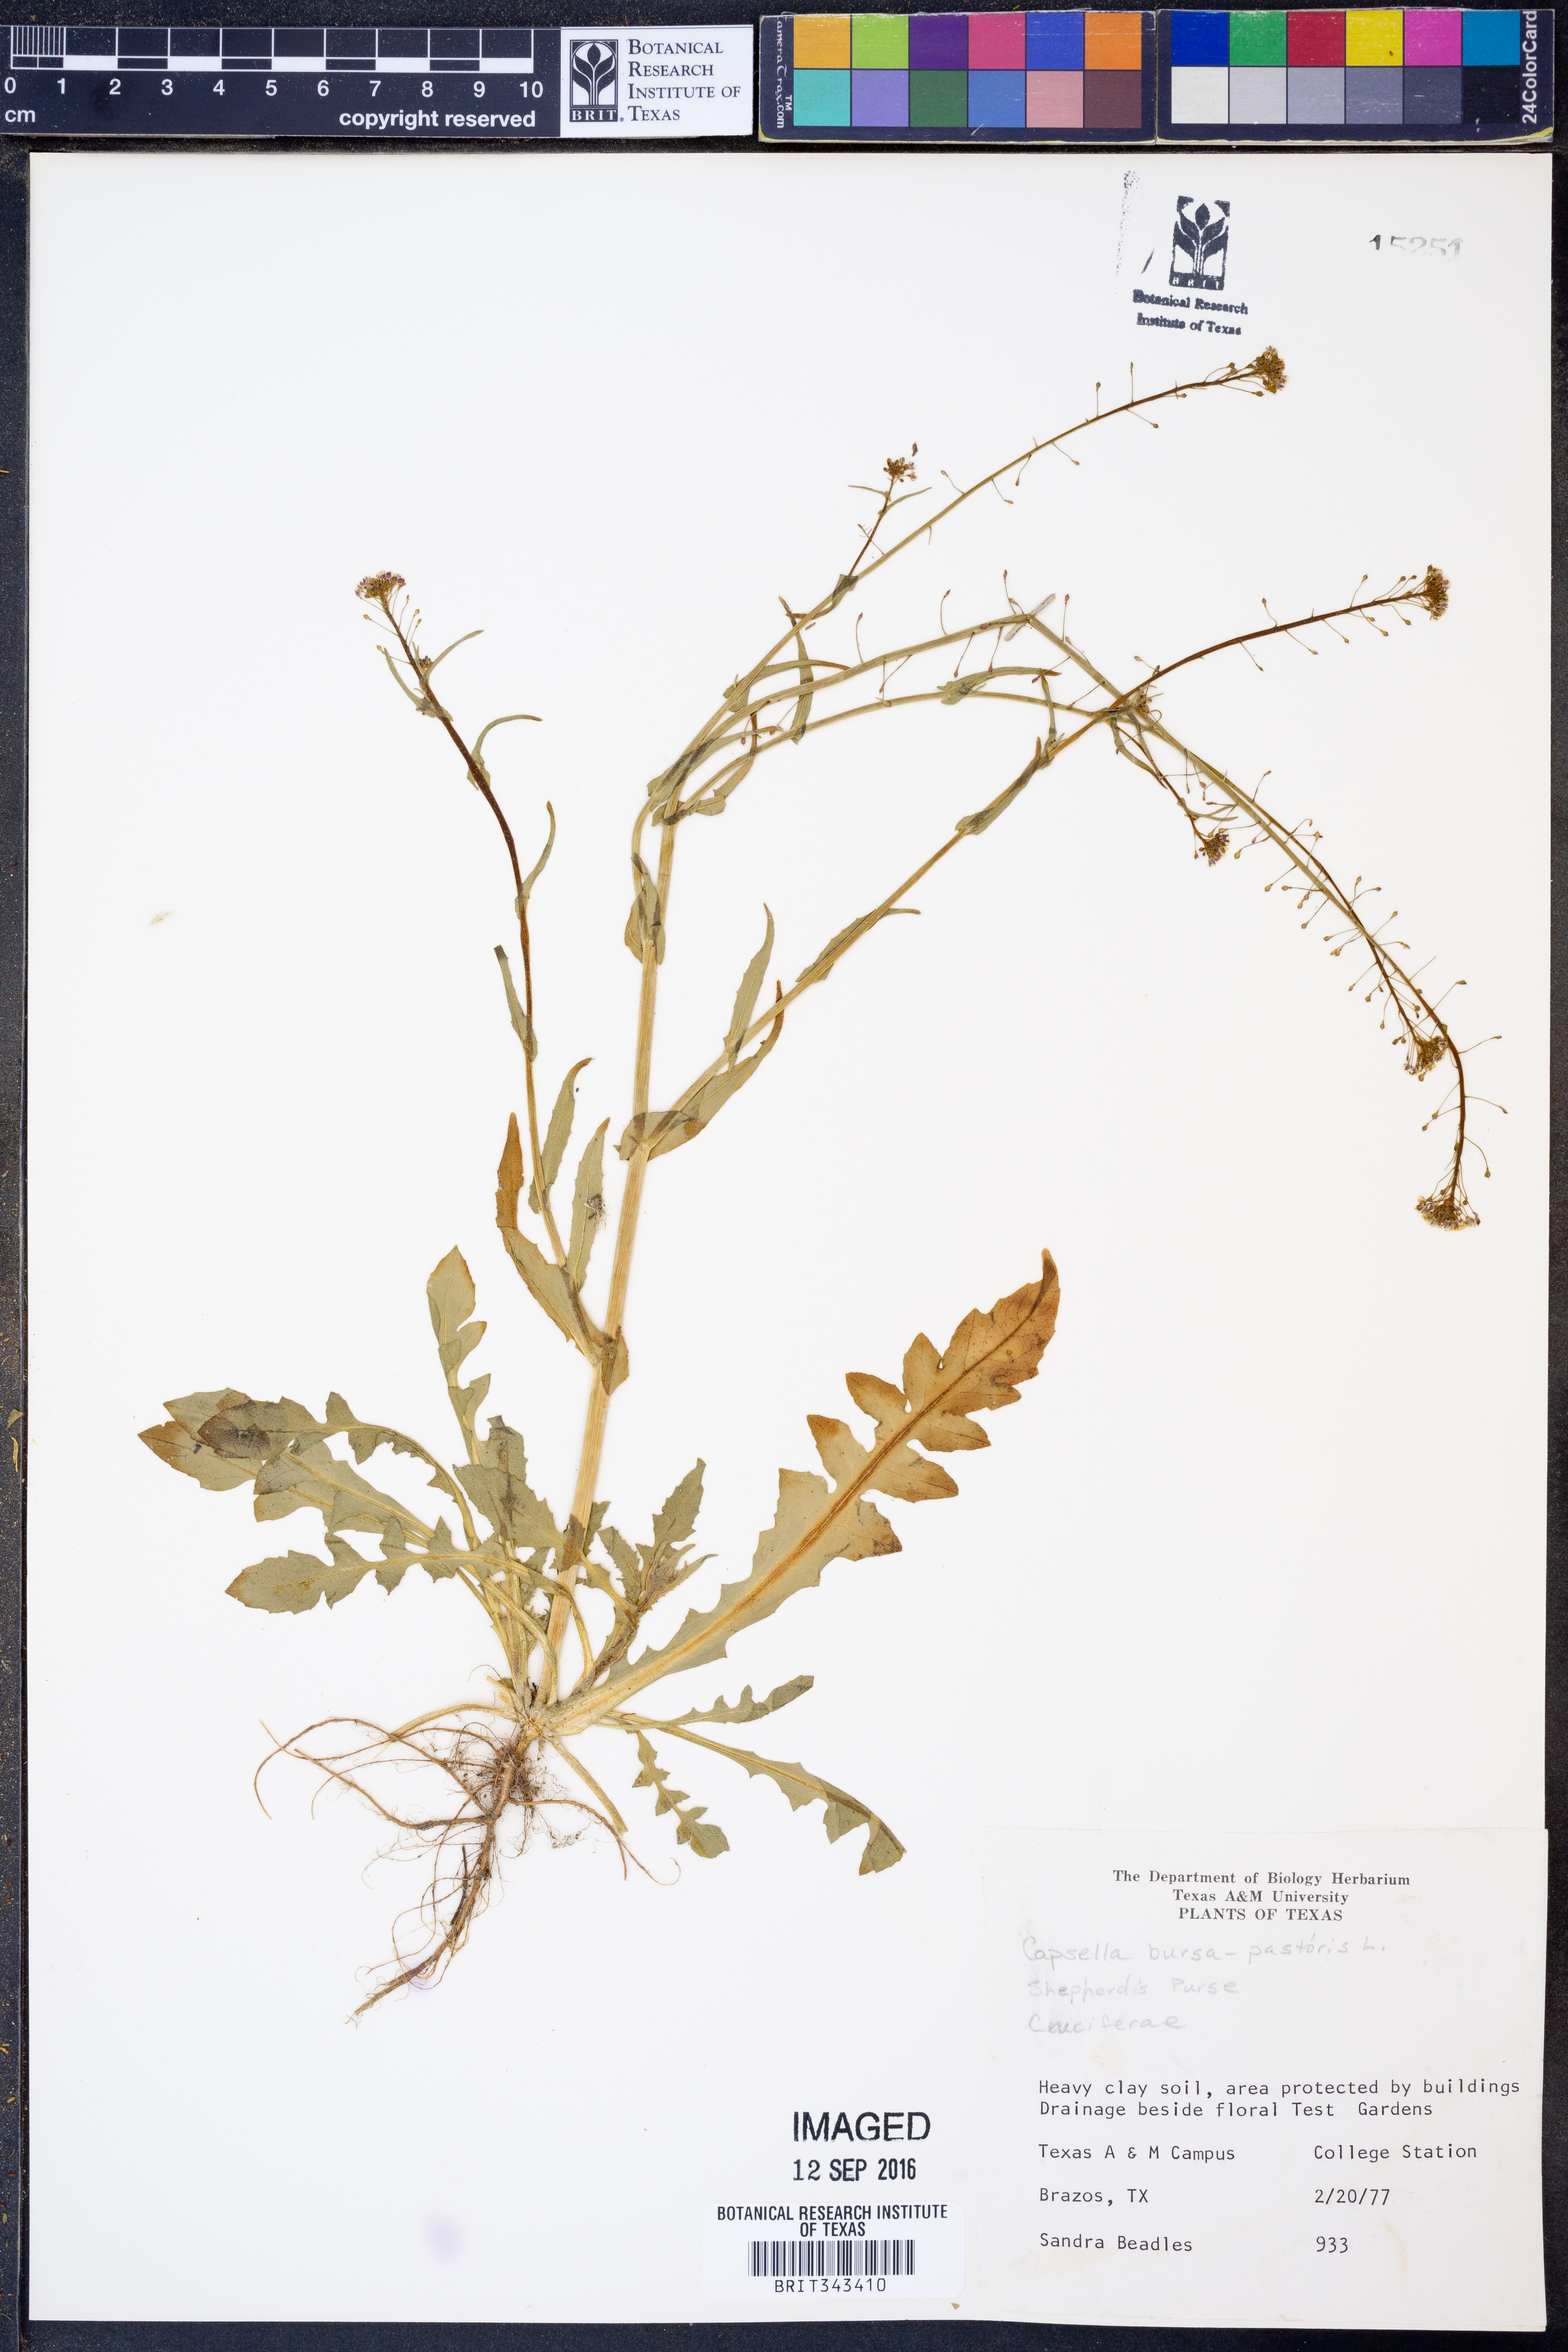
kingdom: Plantae
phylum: Tracheophyta
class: Magnoliopsida
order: Brassicales
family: Brassicaceae
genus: Capsella
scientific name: Capsella bursa-pastoris
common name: Shepherd's purse
